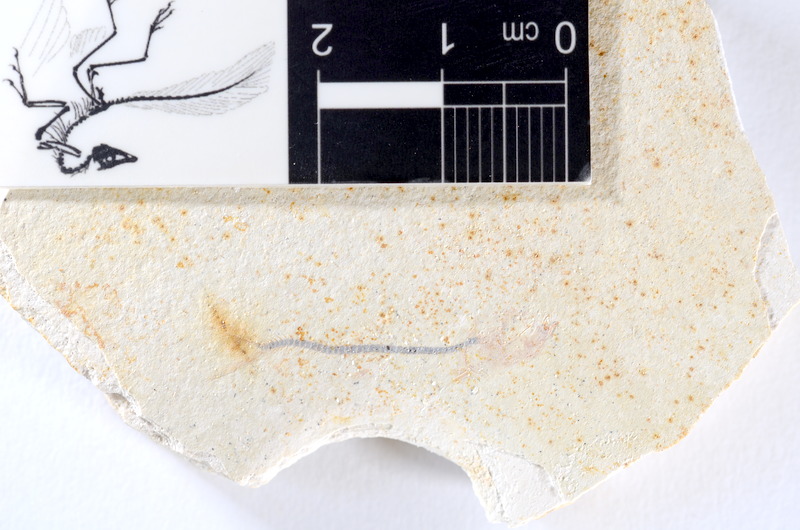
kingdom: Animalia
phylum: Chordata
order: Salmoniformes
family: Orthogonikleithridae
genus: Orthogonikleithrus
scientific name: Orthogonikleithrus hoelli
